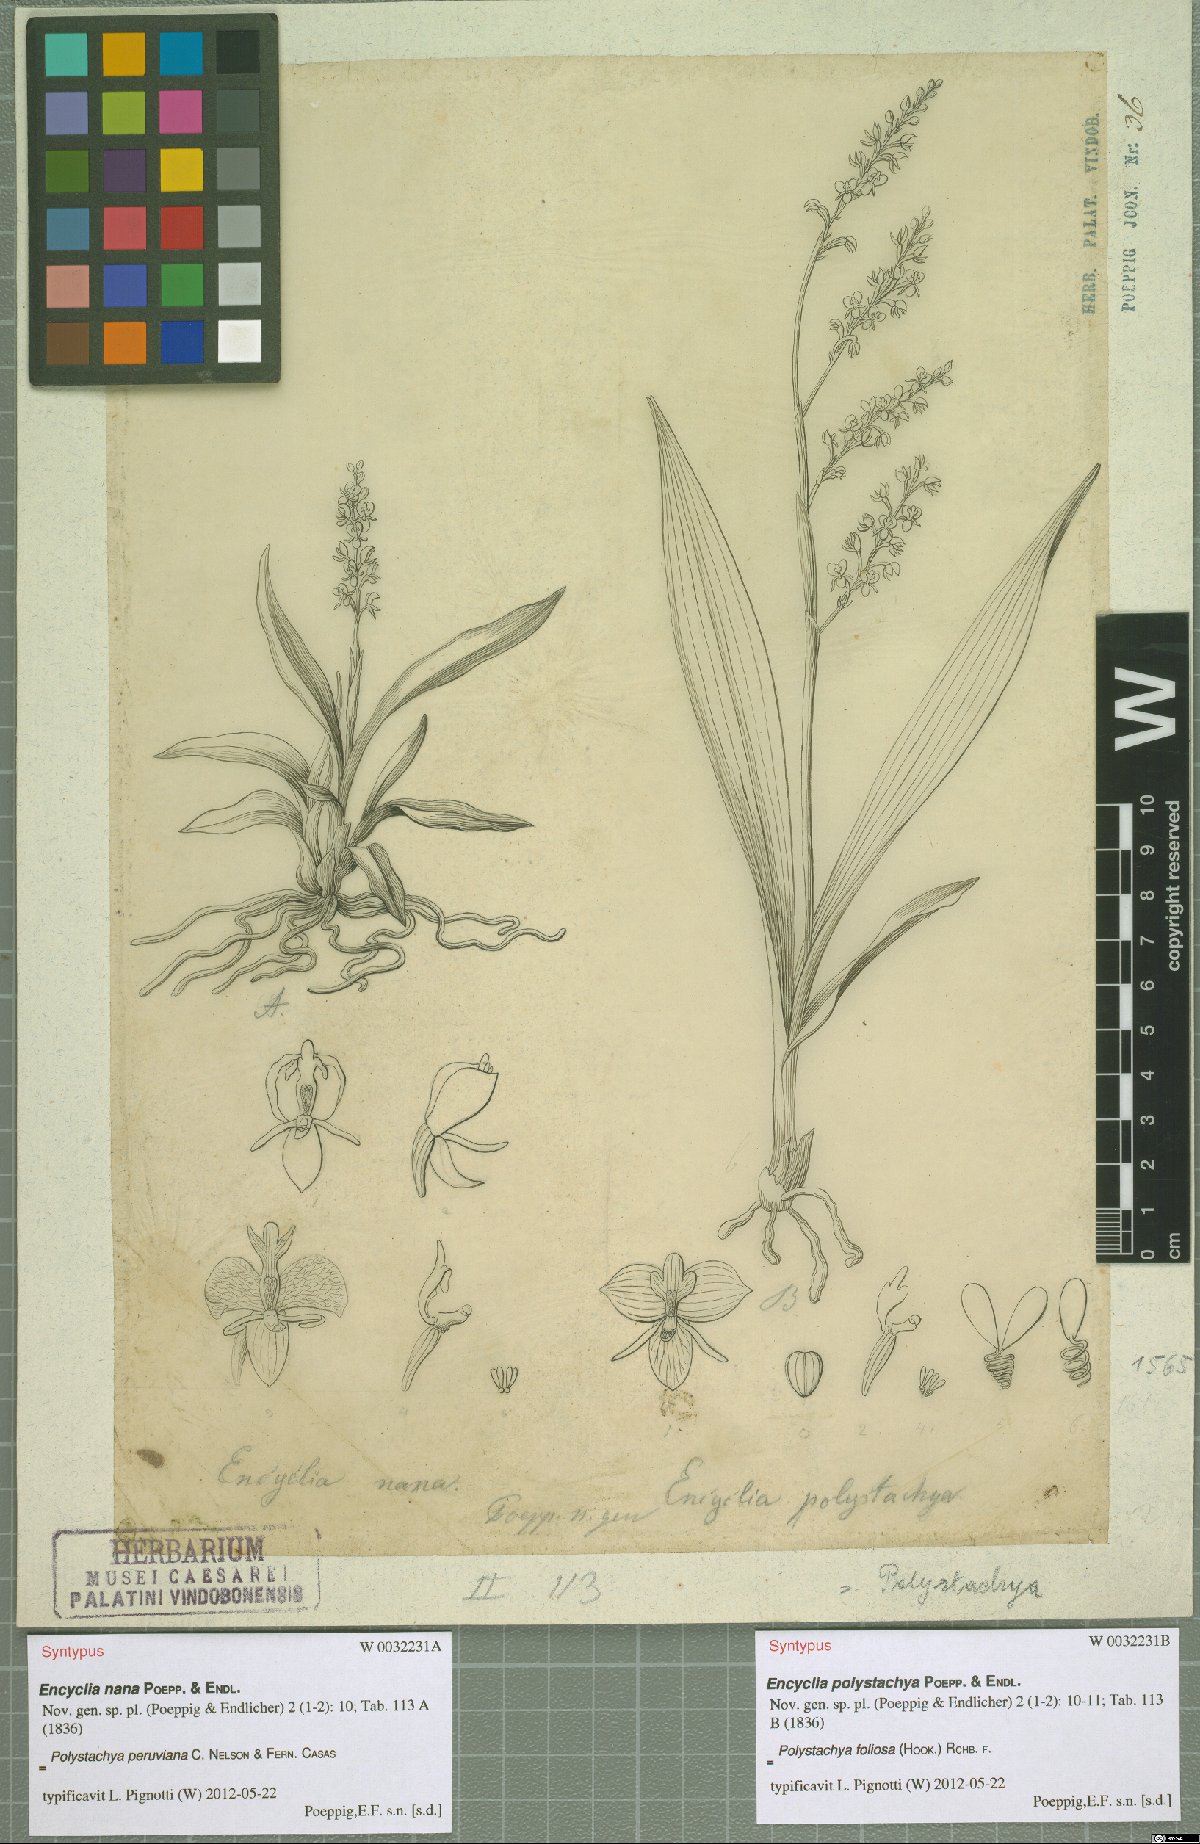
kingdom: Plantae
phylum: Tracheophyta
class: Liliopsida
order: Asparagales
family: Orchidaceae
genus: Polystachya
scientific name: Polystachya foliosa
